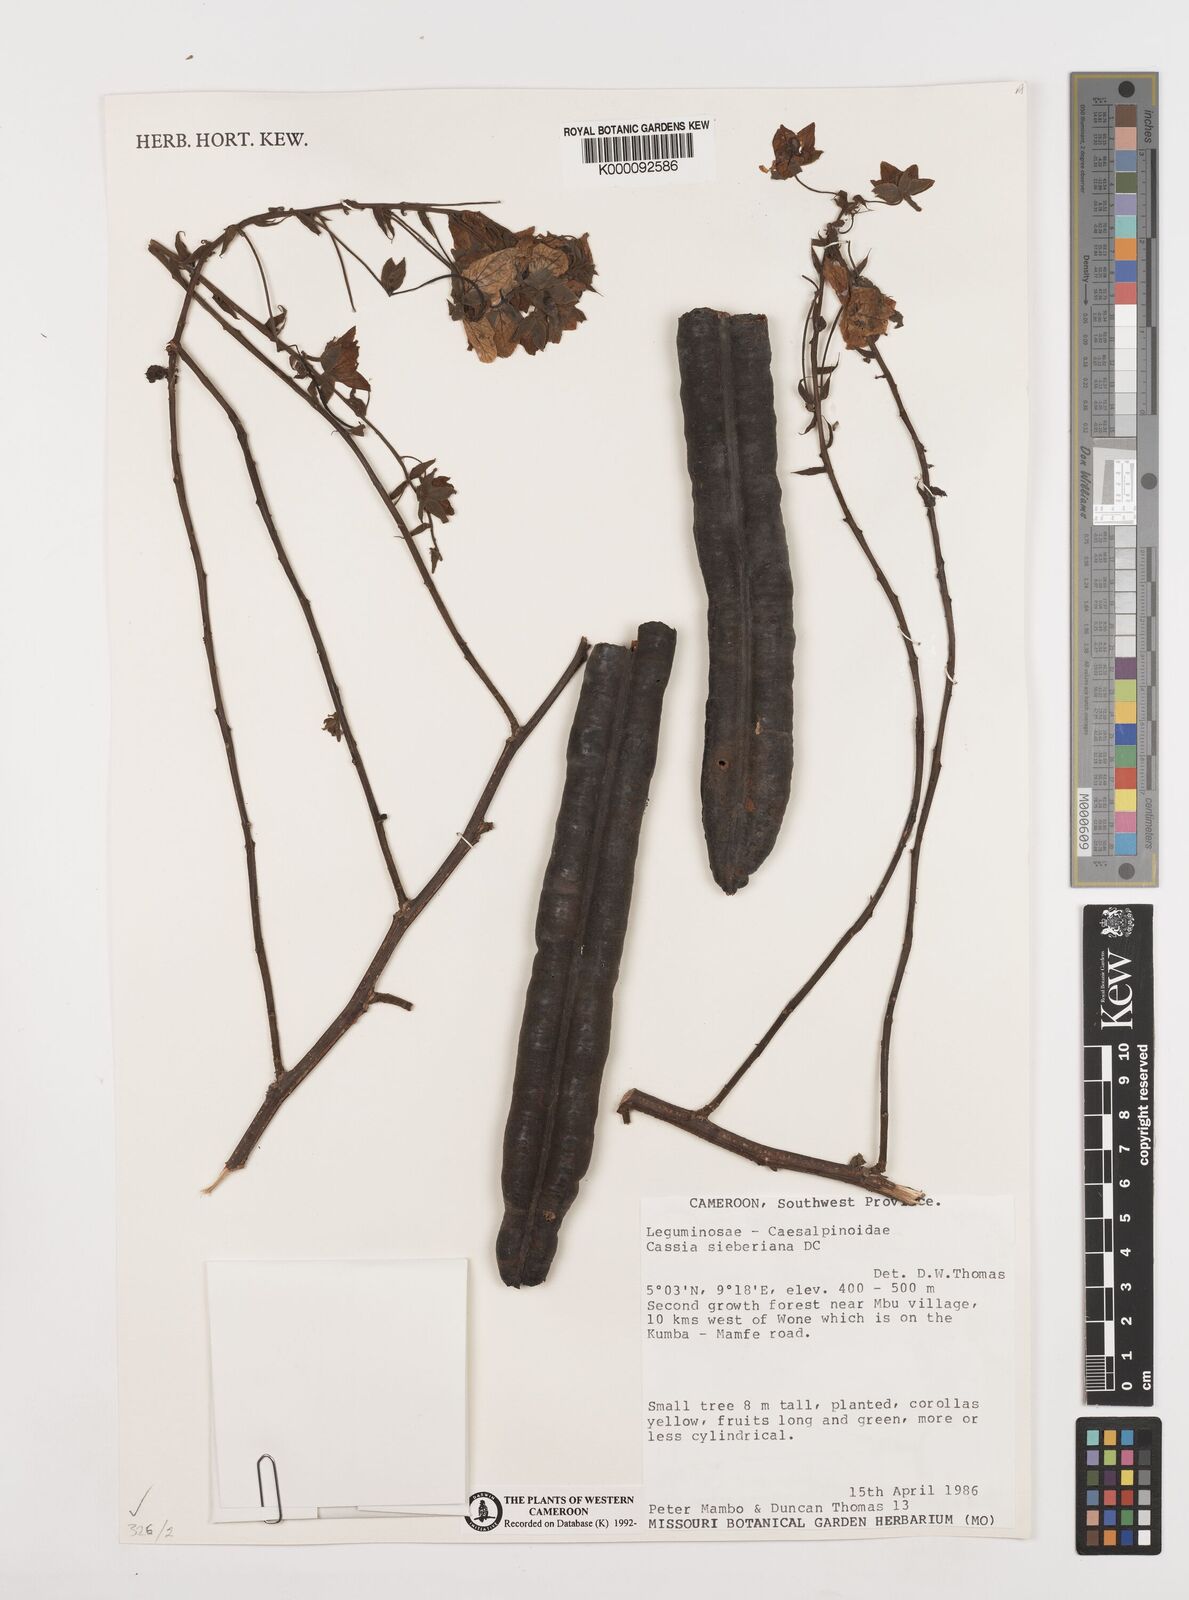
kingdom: Plantae
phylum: Tracheophyta
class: Magnoliopsida
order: Fabales
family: Fabaceae
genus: Cassia
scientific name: Cassia sieberiana
